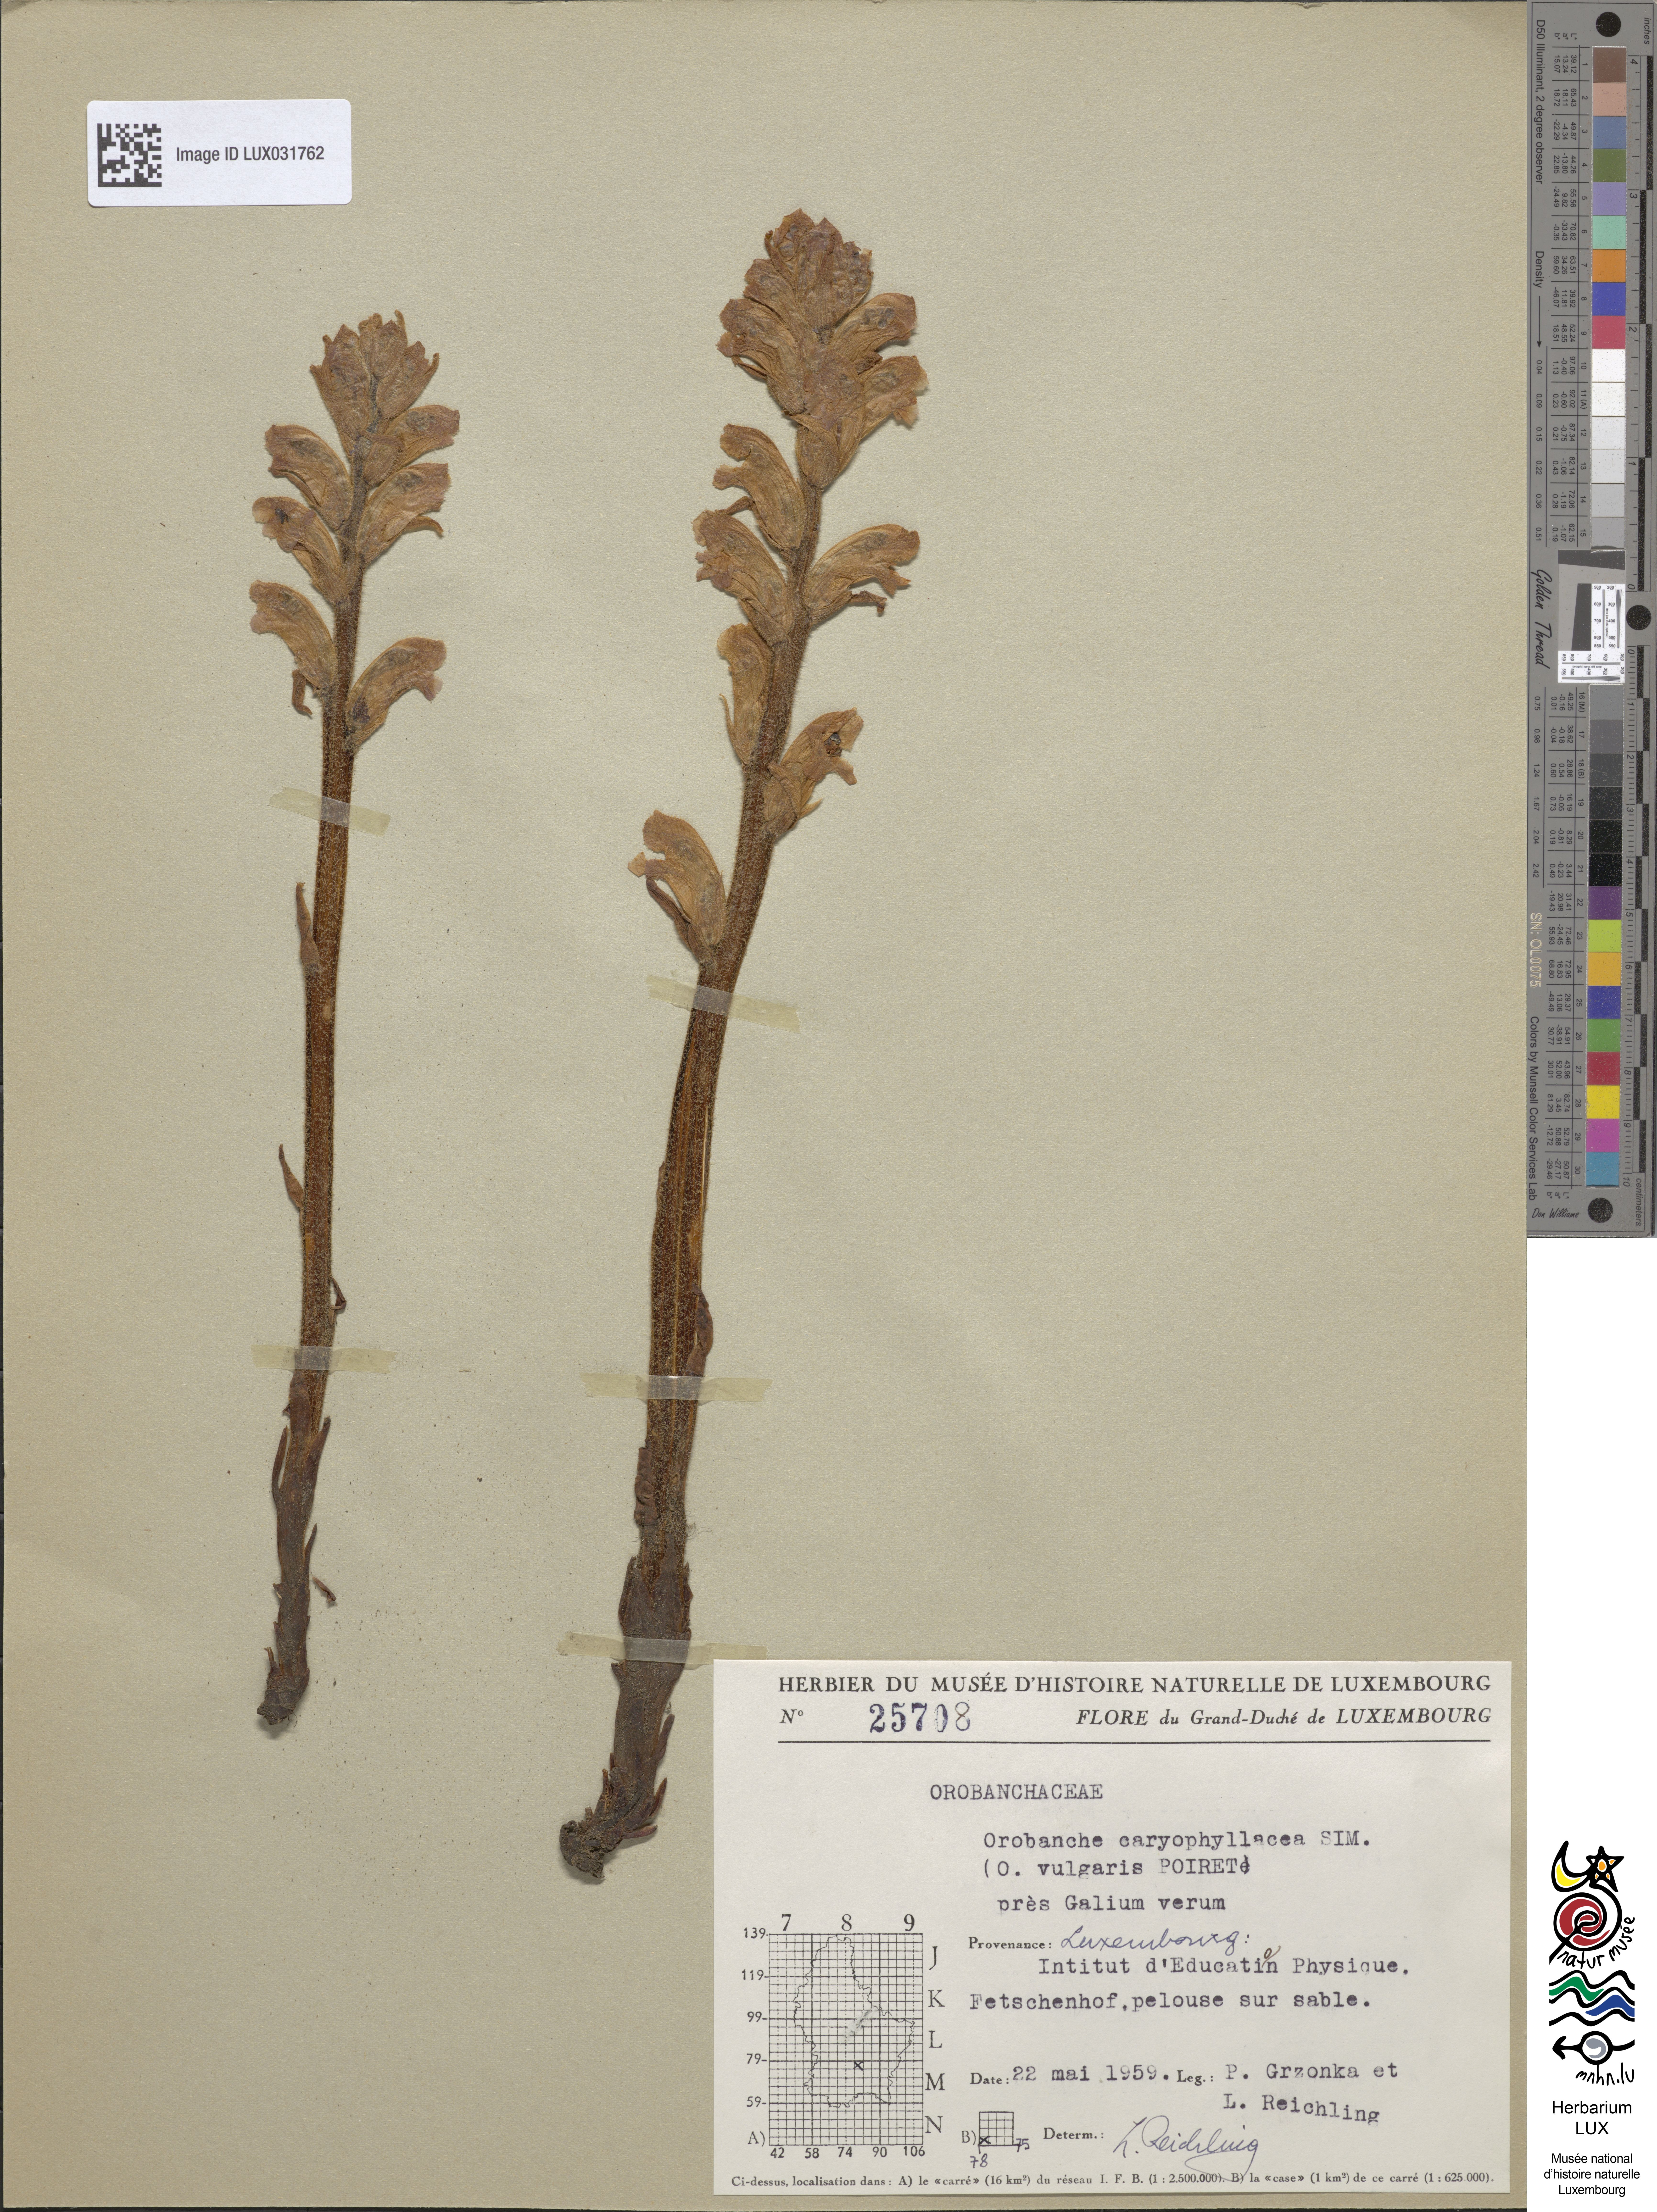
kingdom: Plantae
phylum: Tracheophyta
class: Magnoliopsida
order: Lamiales
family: Orobanchaceae
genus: Orobanche
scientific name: Orobanche caryophyllacea
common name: Bedstraw broomrape
